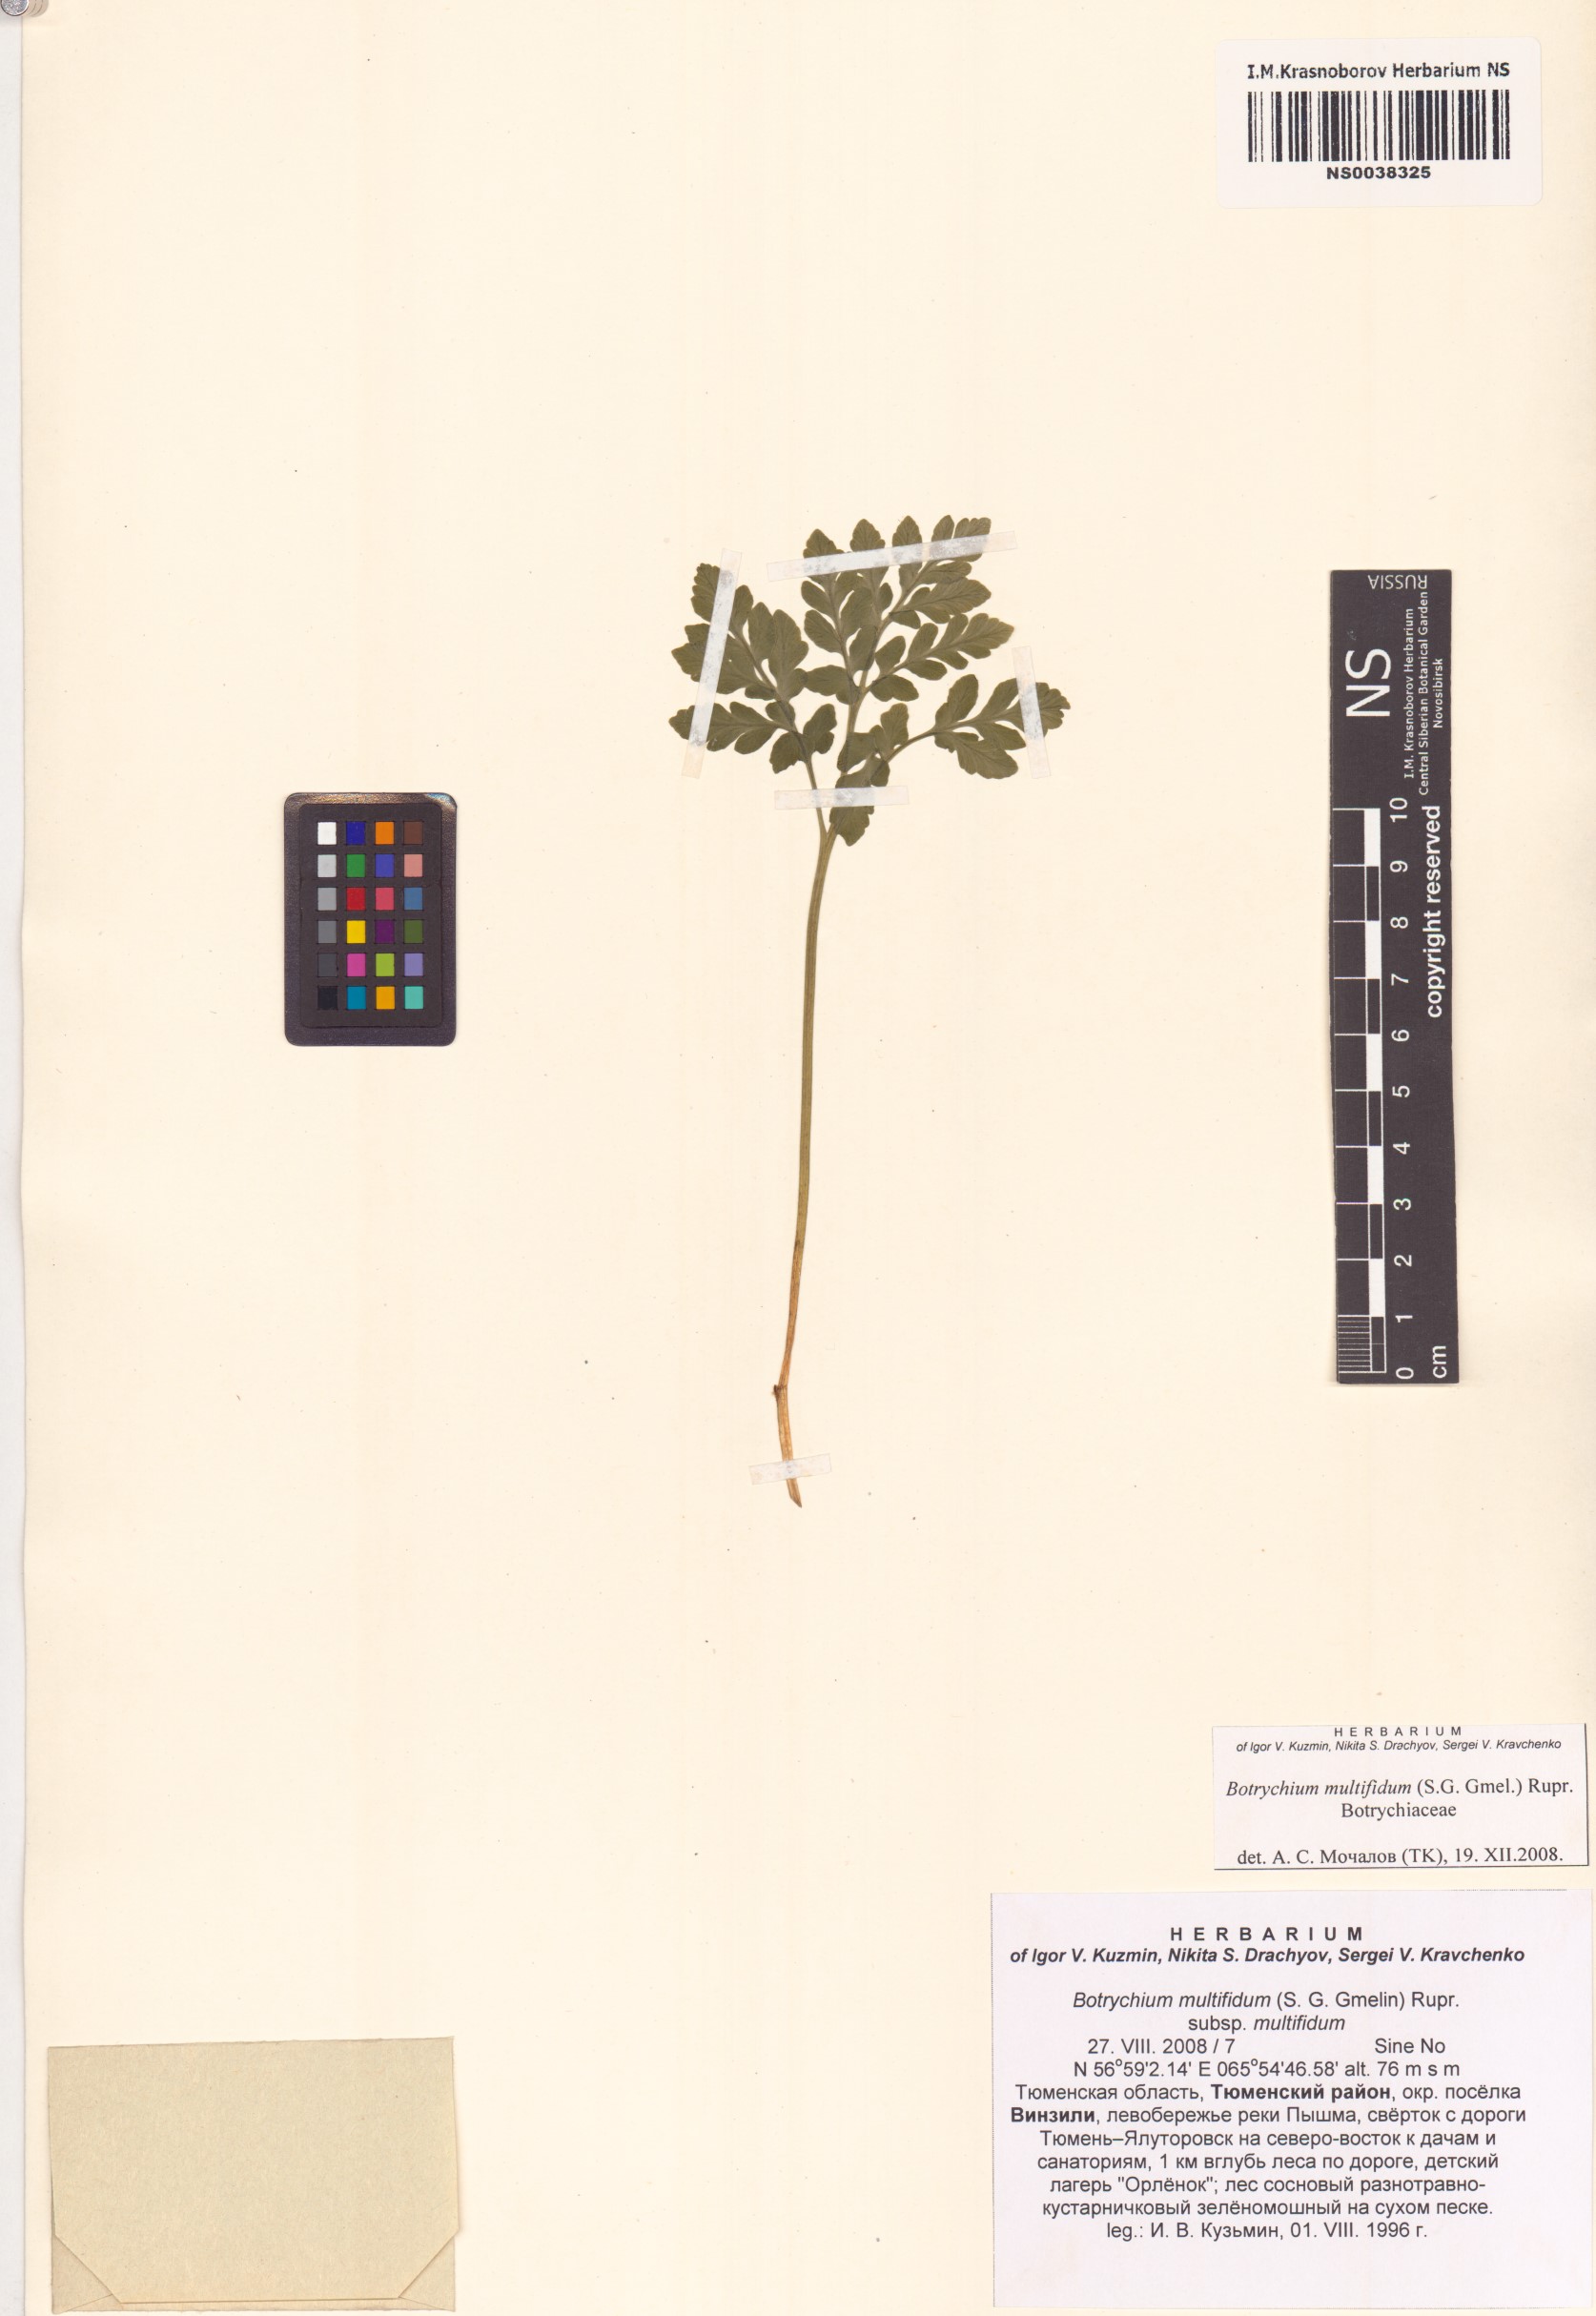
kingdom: Plantae
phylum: Tracheophyta
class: Polypodiopsida
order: Ophioglossales
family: Ophioglossaceae
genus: Sceptridium
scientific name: Sceptridium multifidum
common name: Leathery grape fern
